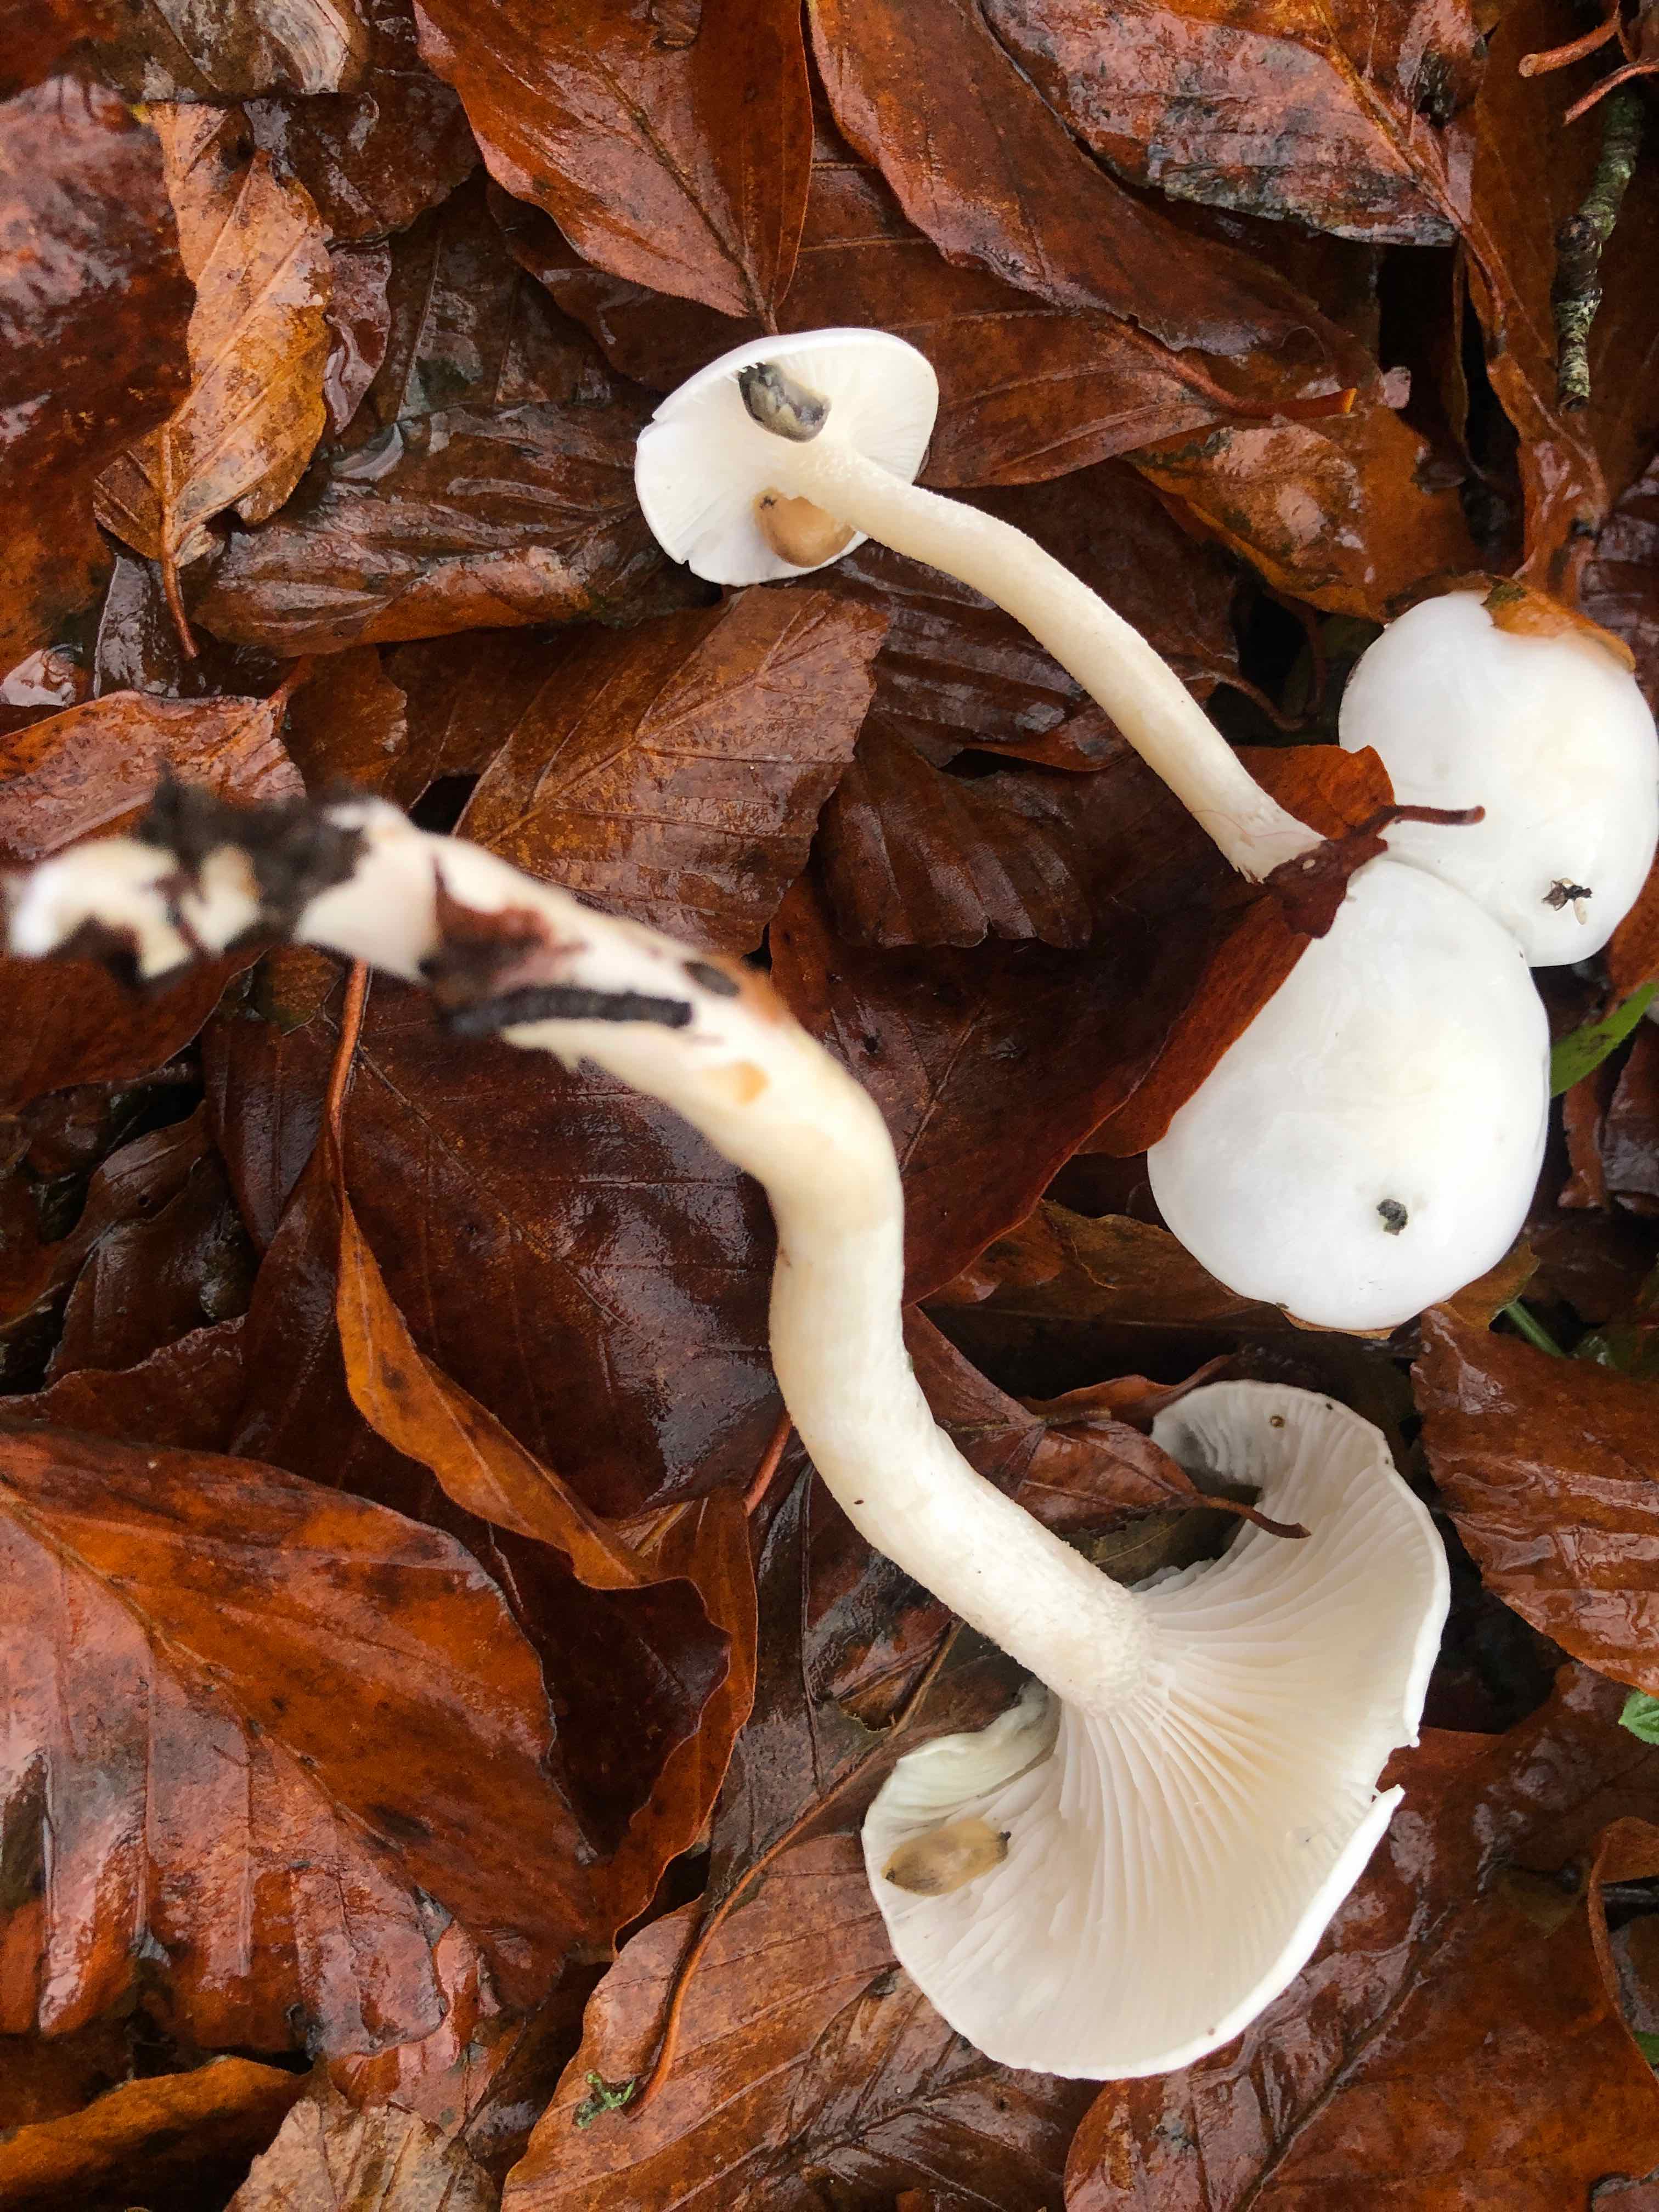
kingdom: Fungi
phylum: Basidiomycota
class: Agaricomycetes
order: Agaricales
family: Hygrophoraceae
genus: Hygrophorus
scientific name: Hygrophorus eburneus
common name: elfenbens-sneglehat
